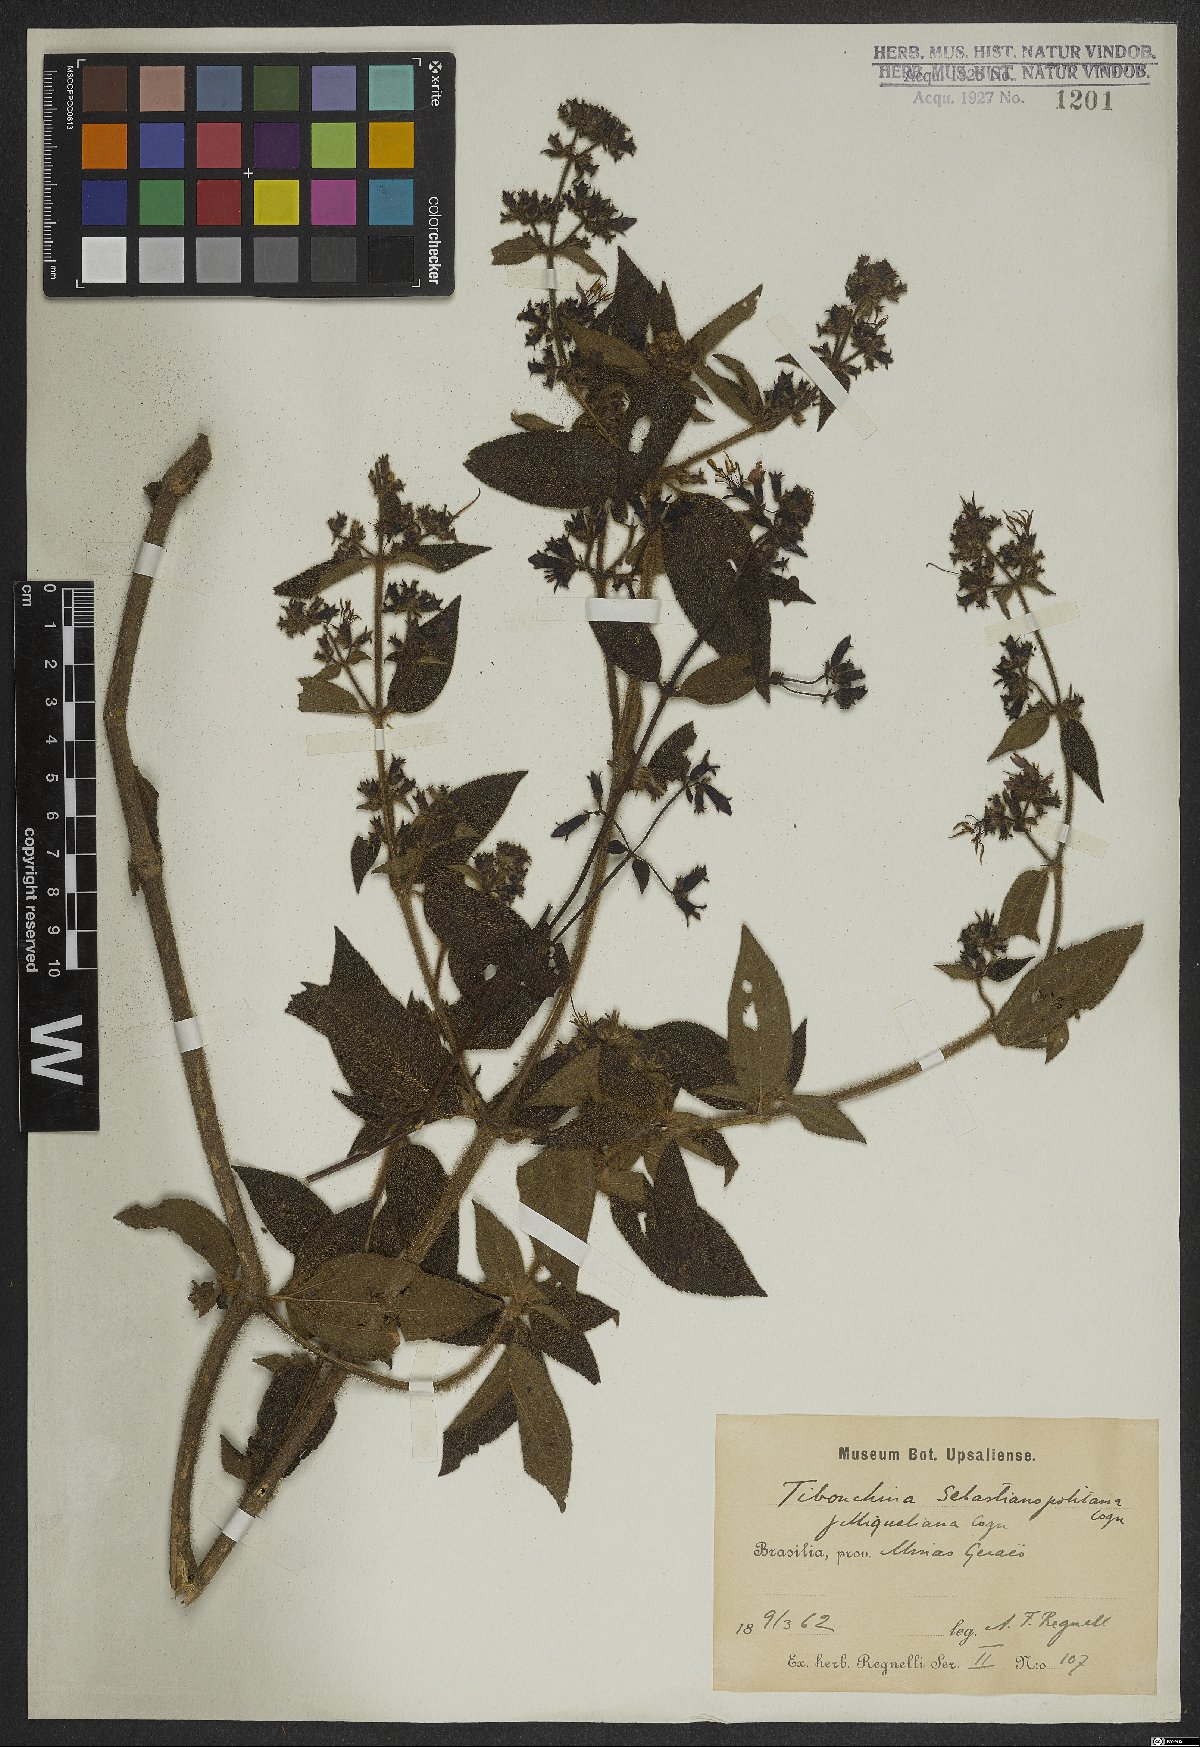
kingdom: Plantae
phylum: Tracheophyta
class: Magnoliopsida
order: Myrtales
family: Melastomataceae
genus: Chaetogastra
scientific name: Chaetogastra sebastianopolitana
